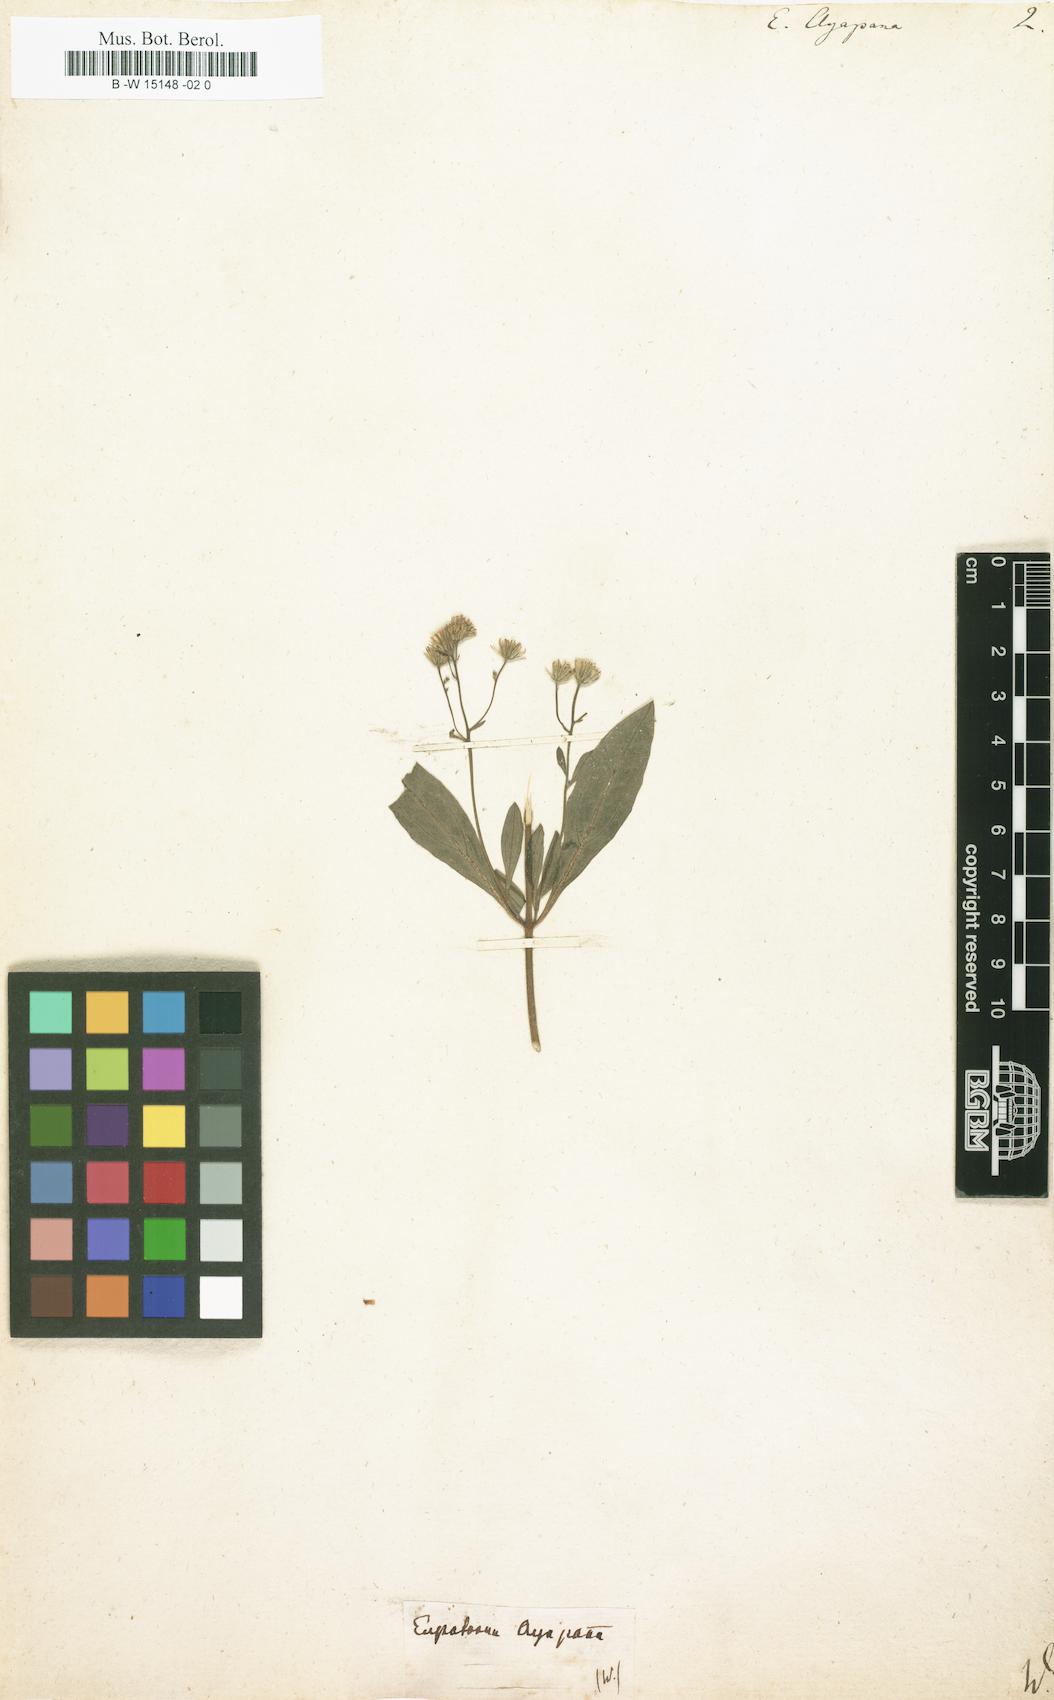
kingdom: Plantae
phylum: Tracheophyta
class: Magnoliopsida
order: Asterales
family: Asteraceae
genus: Ayapana
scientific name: Ayapana triplinervis
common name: Triplinerved eupatorium
